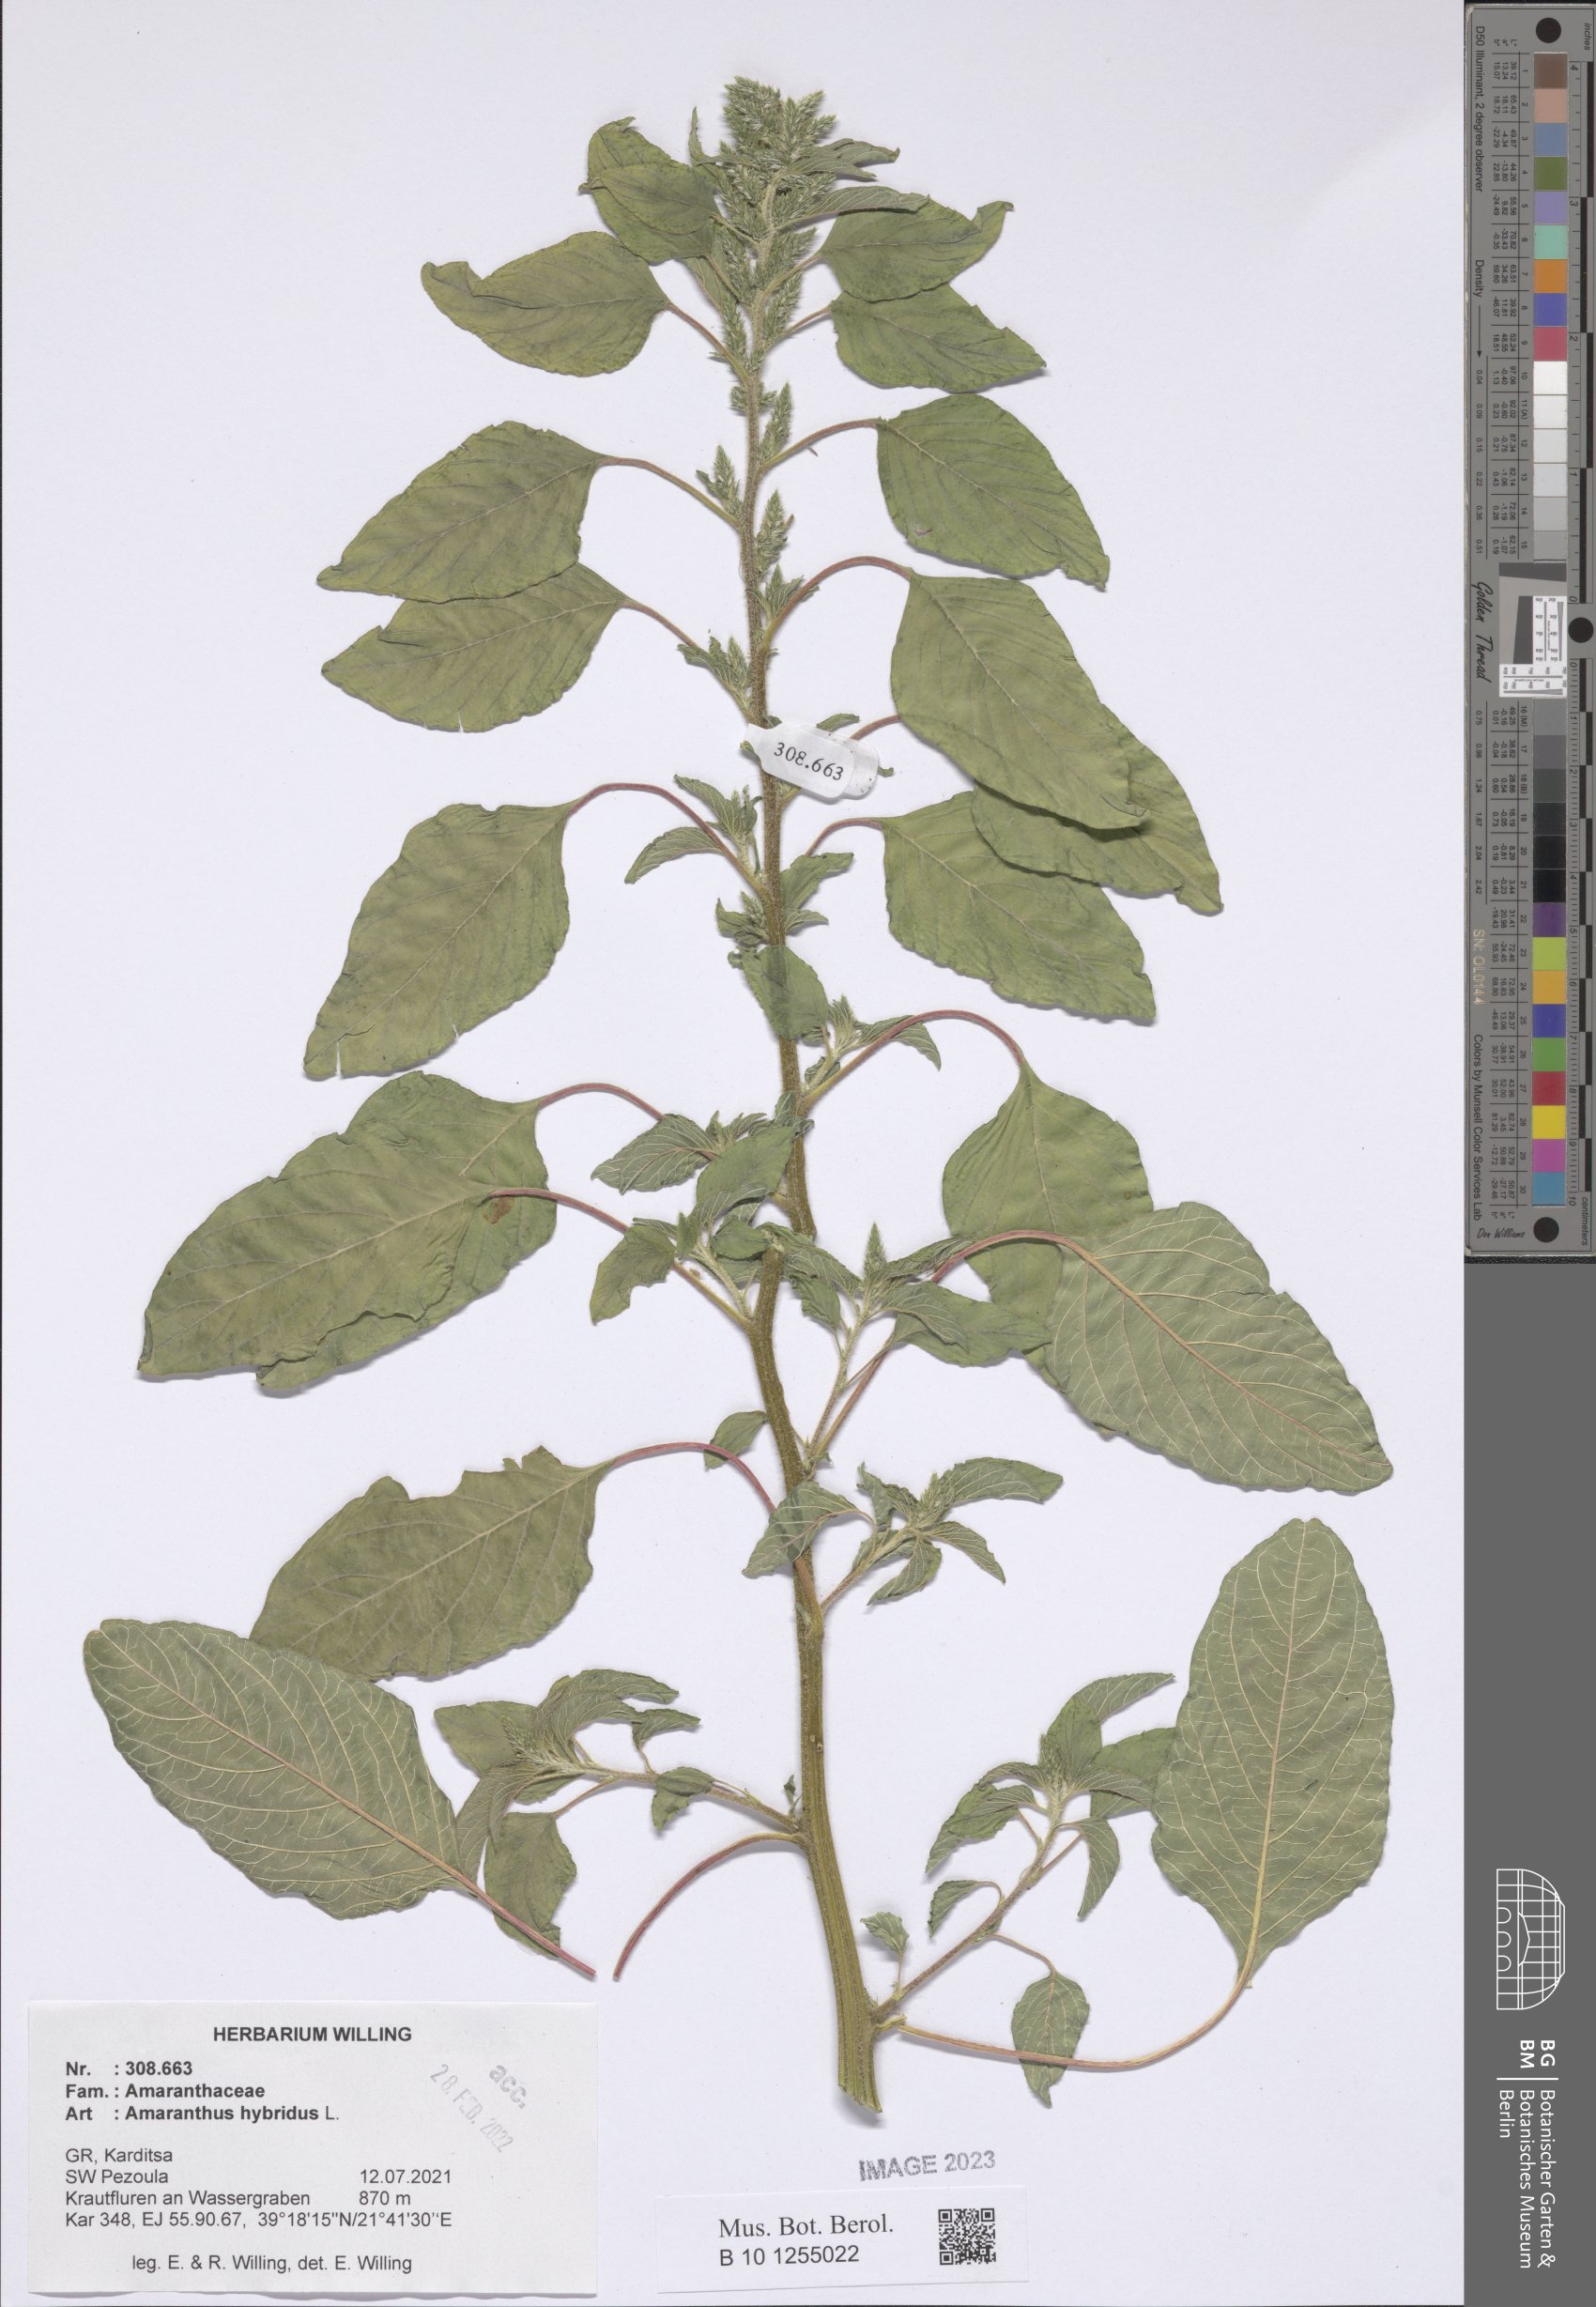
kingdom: Plantae
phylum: Tracheophyta
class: Magnoliopsida
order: Caryophyllales
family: Amaranthaceae
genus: Amaranthus
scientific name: Amaranthus hybridus
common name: Green amaranth
